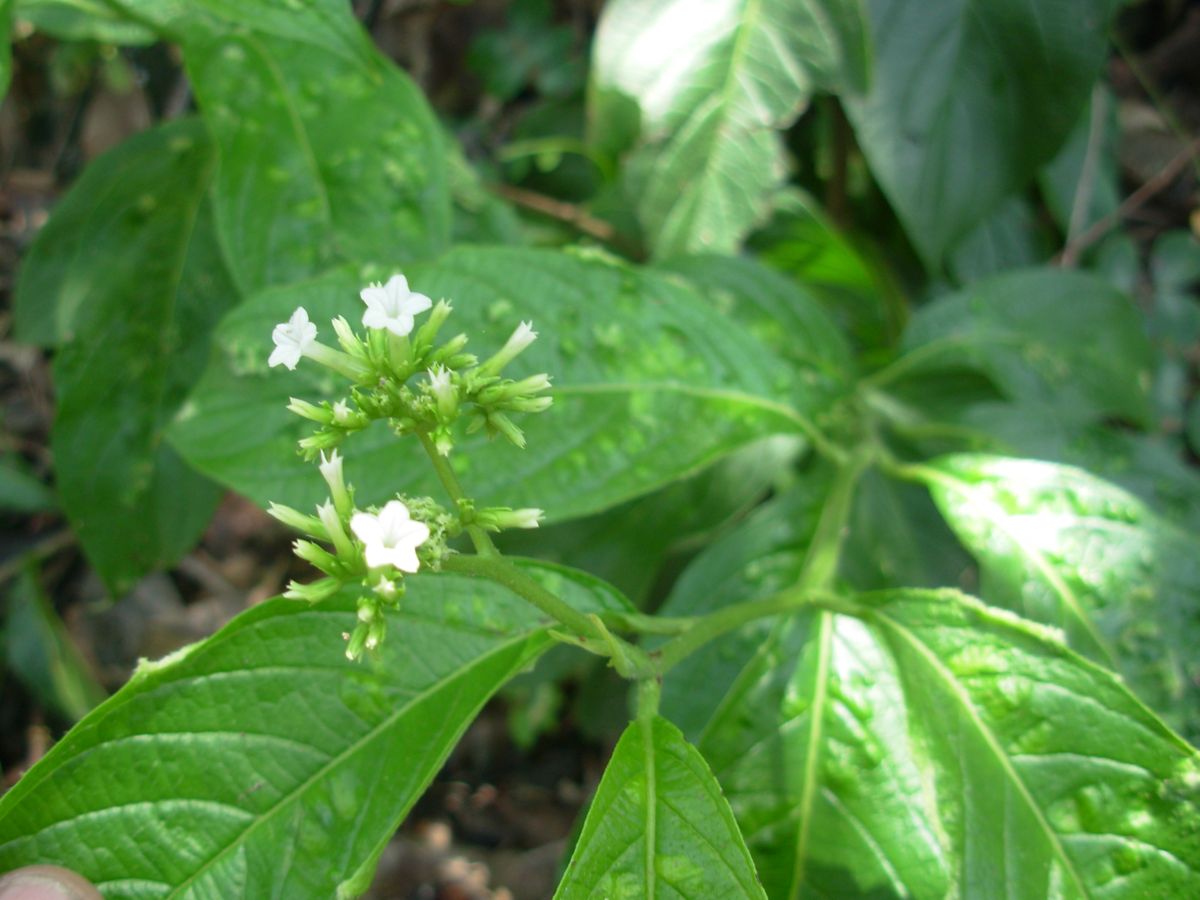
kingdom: Plantae
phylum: Tracheophyta
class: Magnoliopsida
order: Boraginales
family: Heliotropiaceae
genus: Heliotropium
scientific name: Heliotropium verdcourtii
